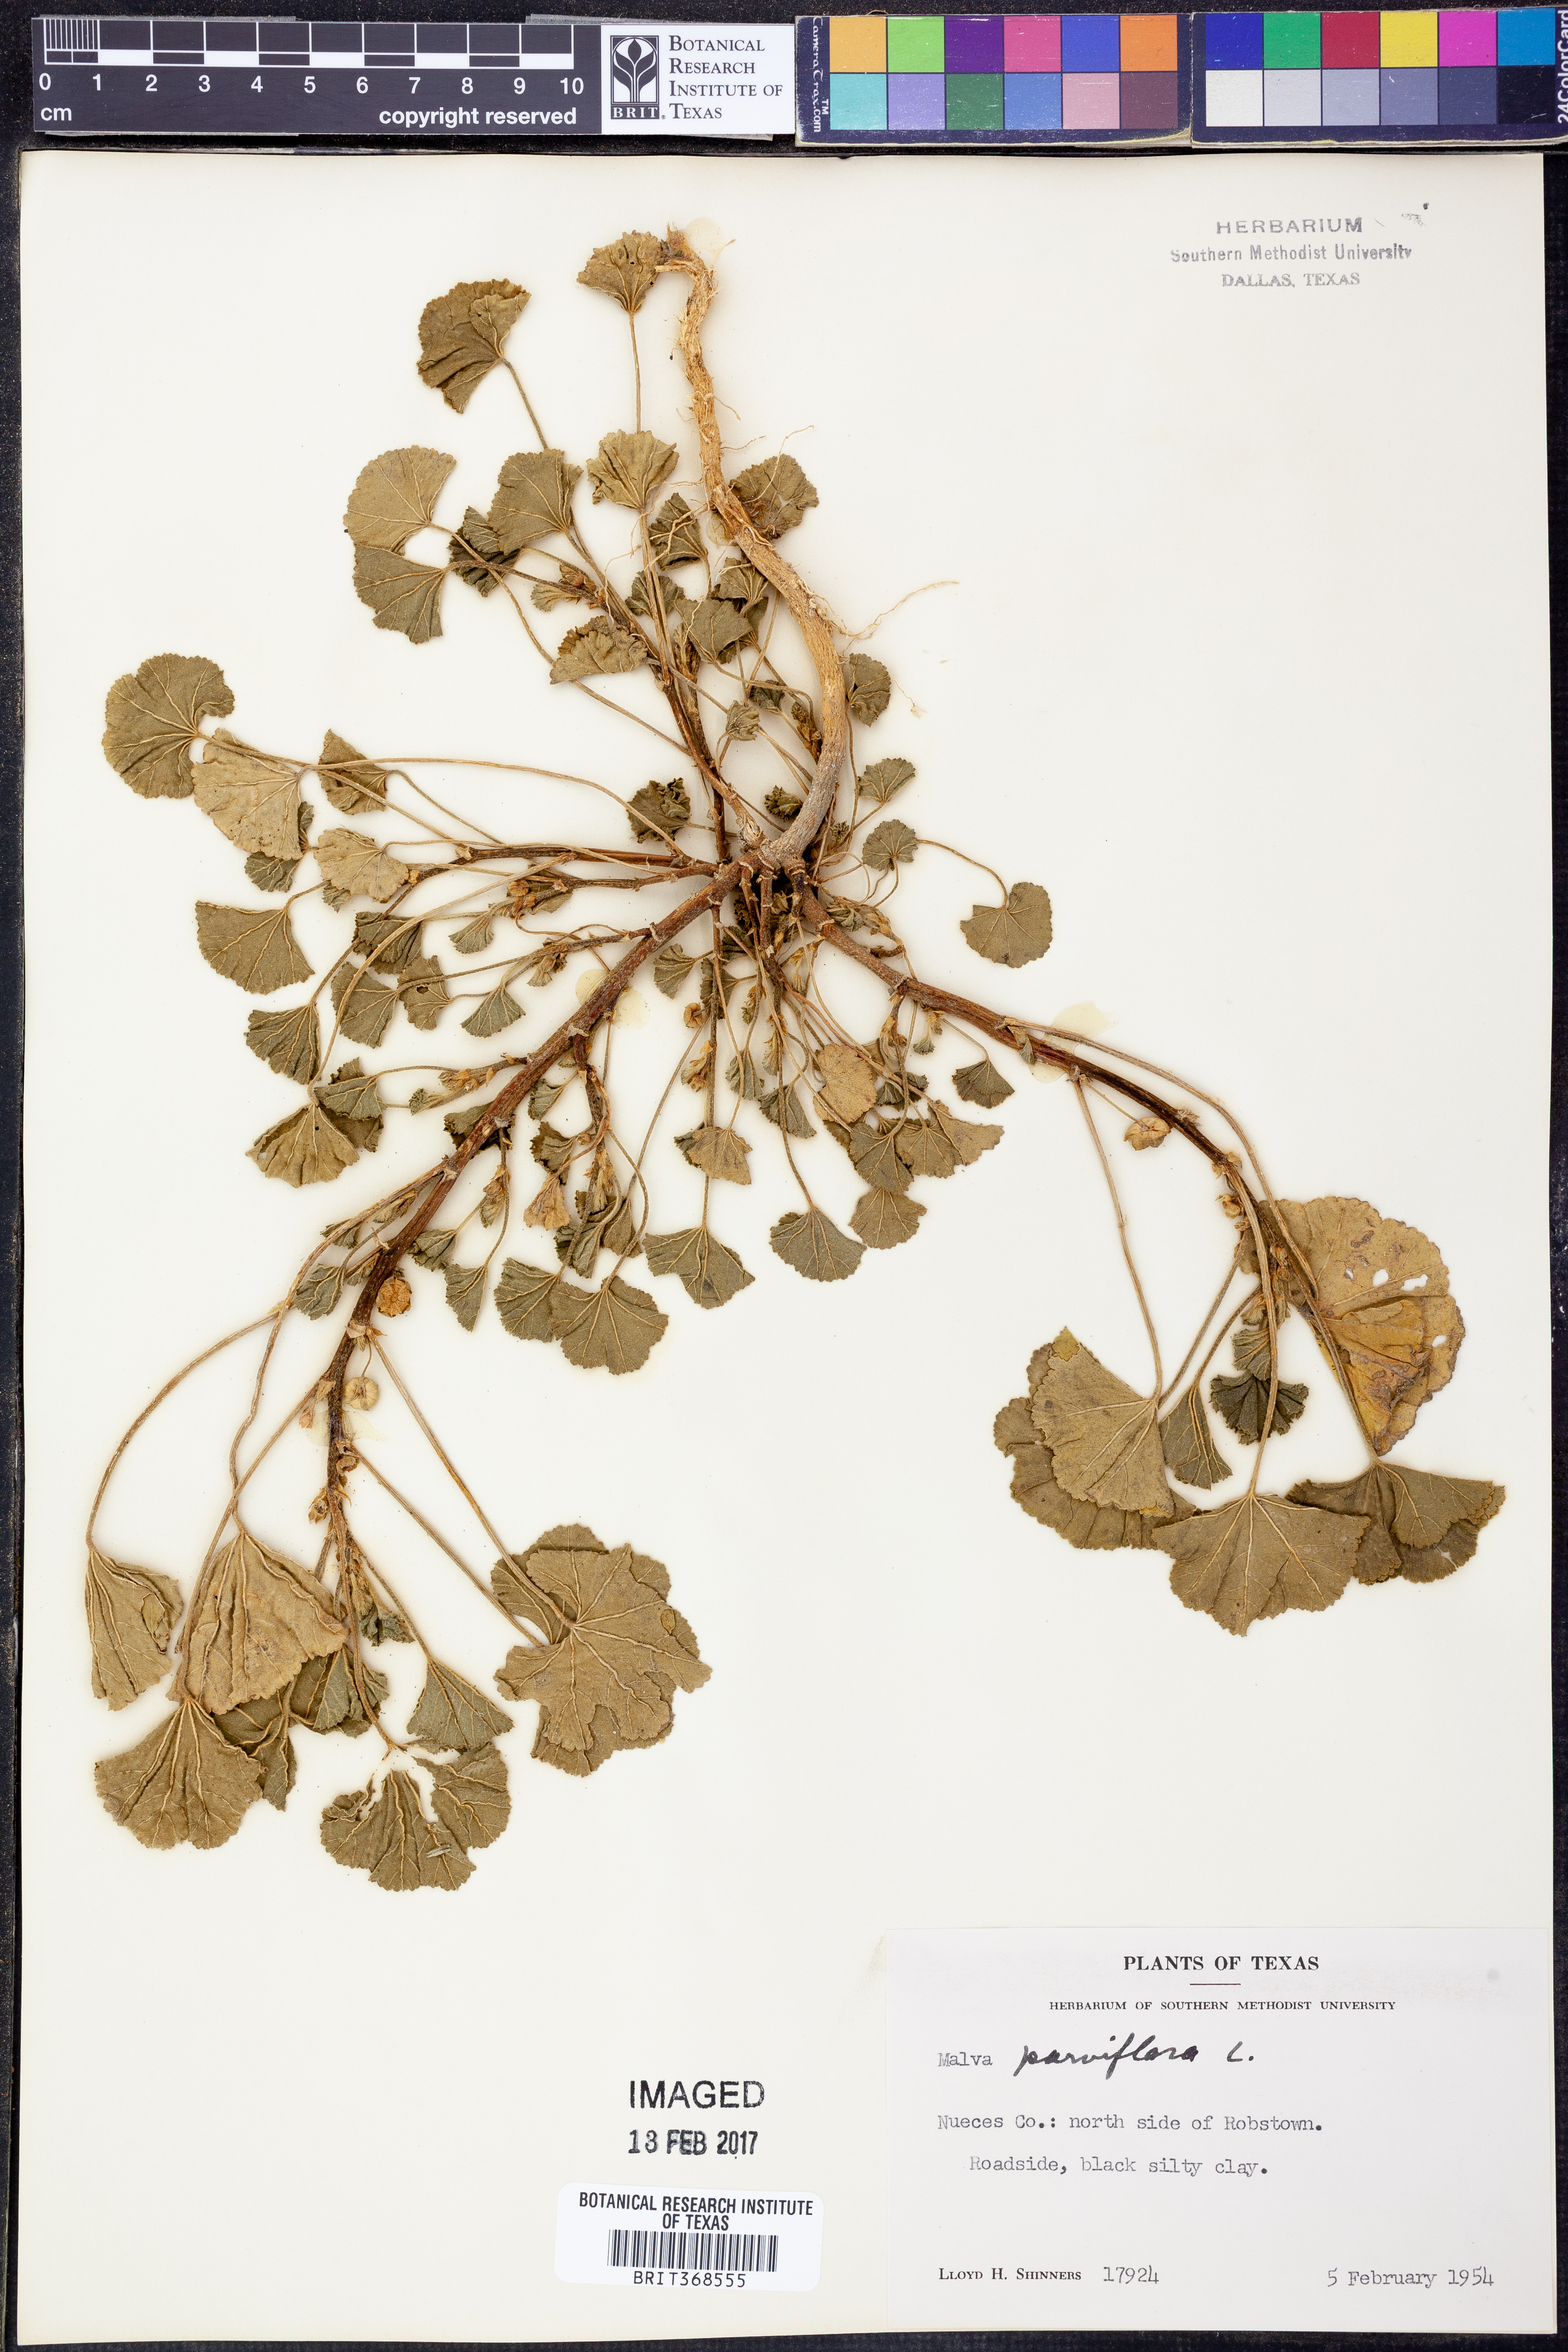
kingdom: Plantae
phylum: Tracheophyta
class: Magnoliopsida
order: Malvales
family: Malvaceae
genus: Malva
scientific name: Malva parviflora
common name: Least mallow
